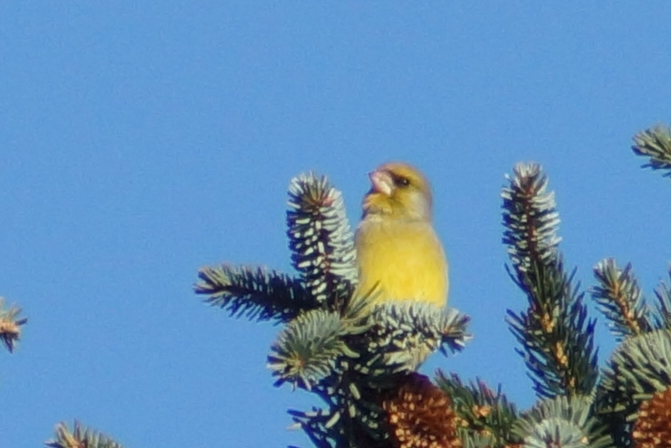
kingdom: Plantae
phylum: Tracheophyta
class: Liliopsida
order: Poales
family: Poaceae
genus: Chloris
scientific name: Chloris chloris
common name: Grønirisk
